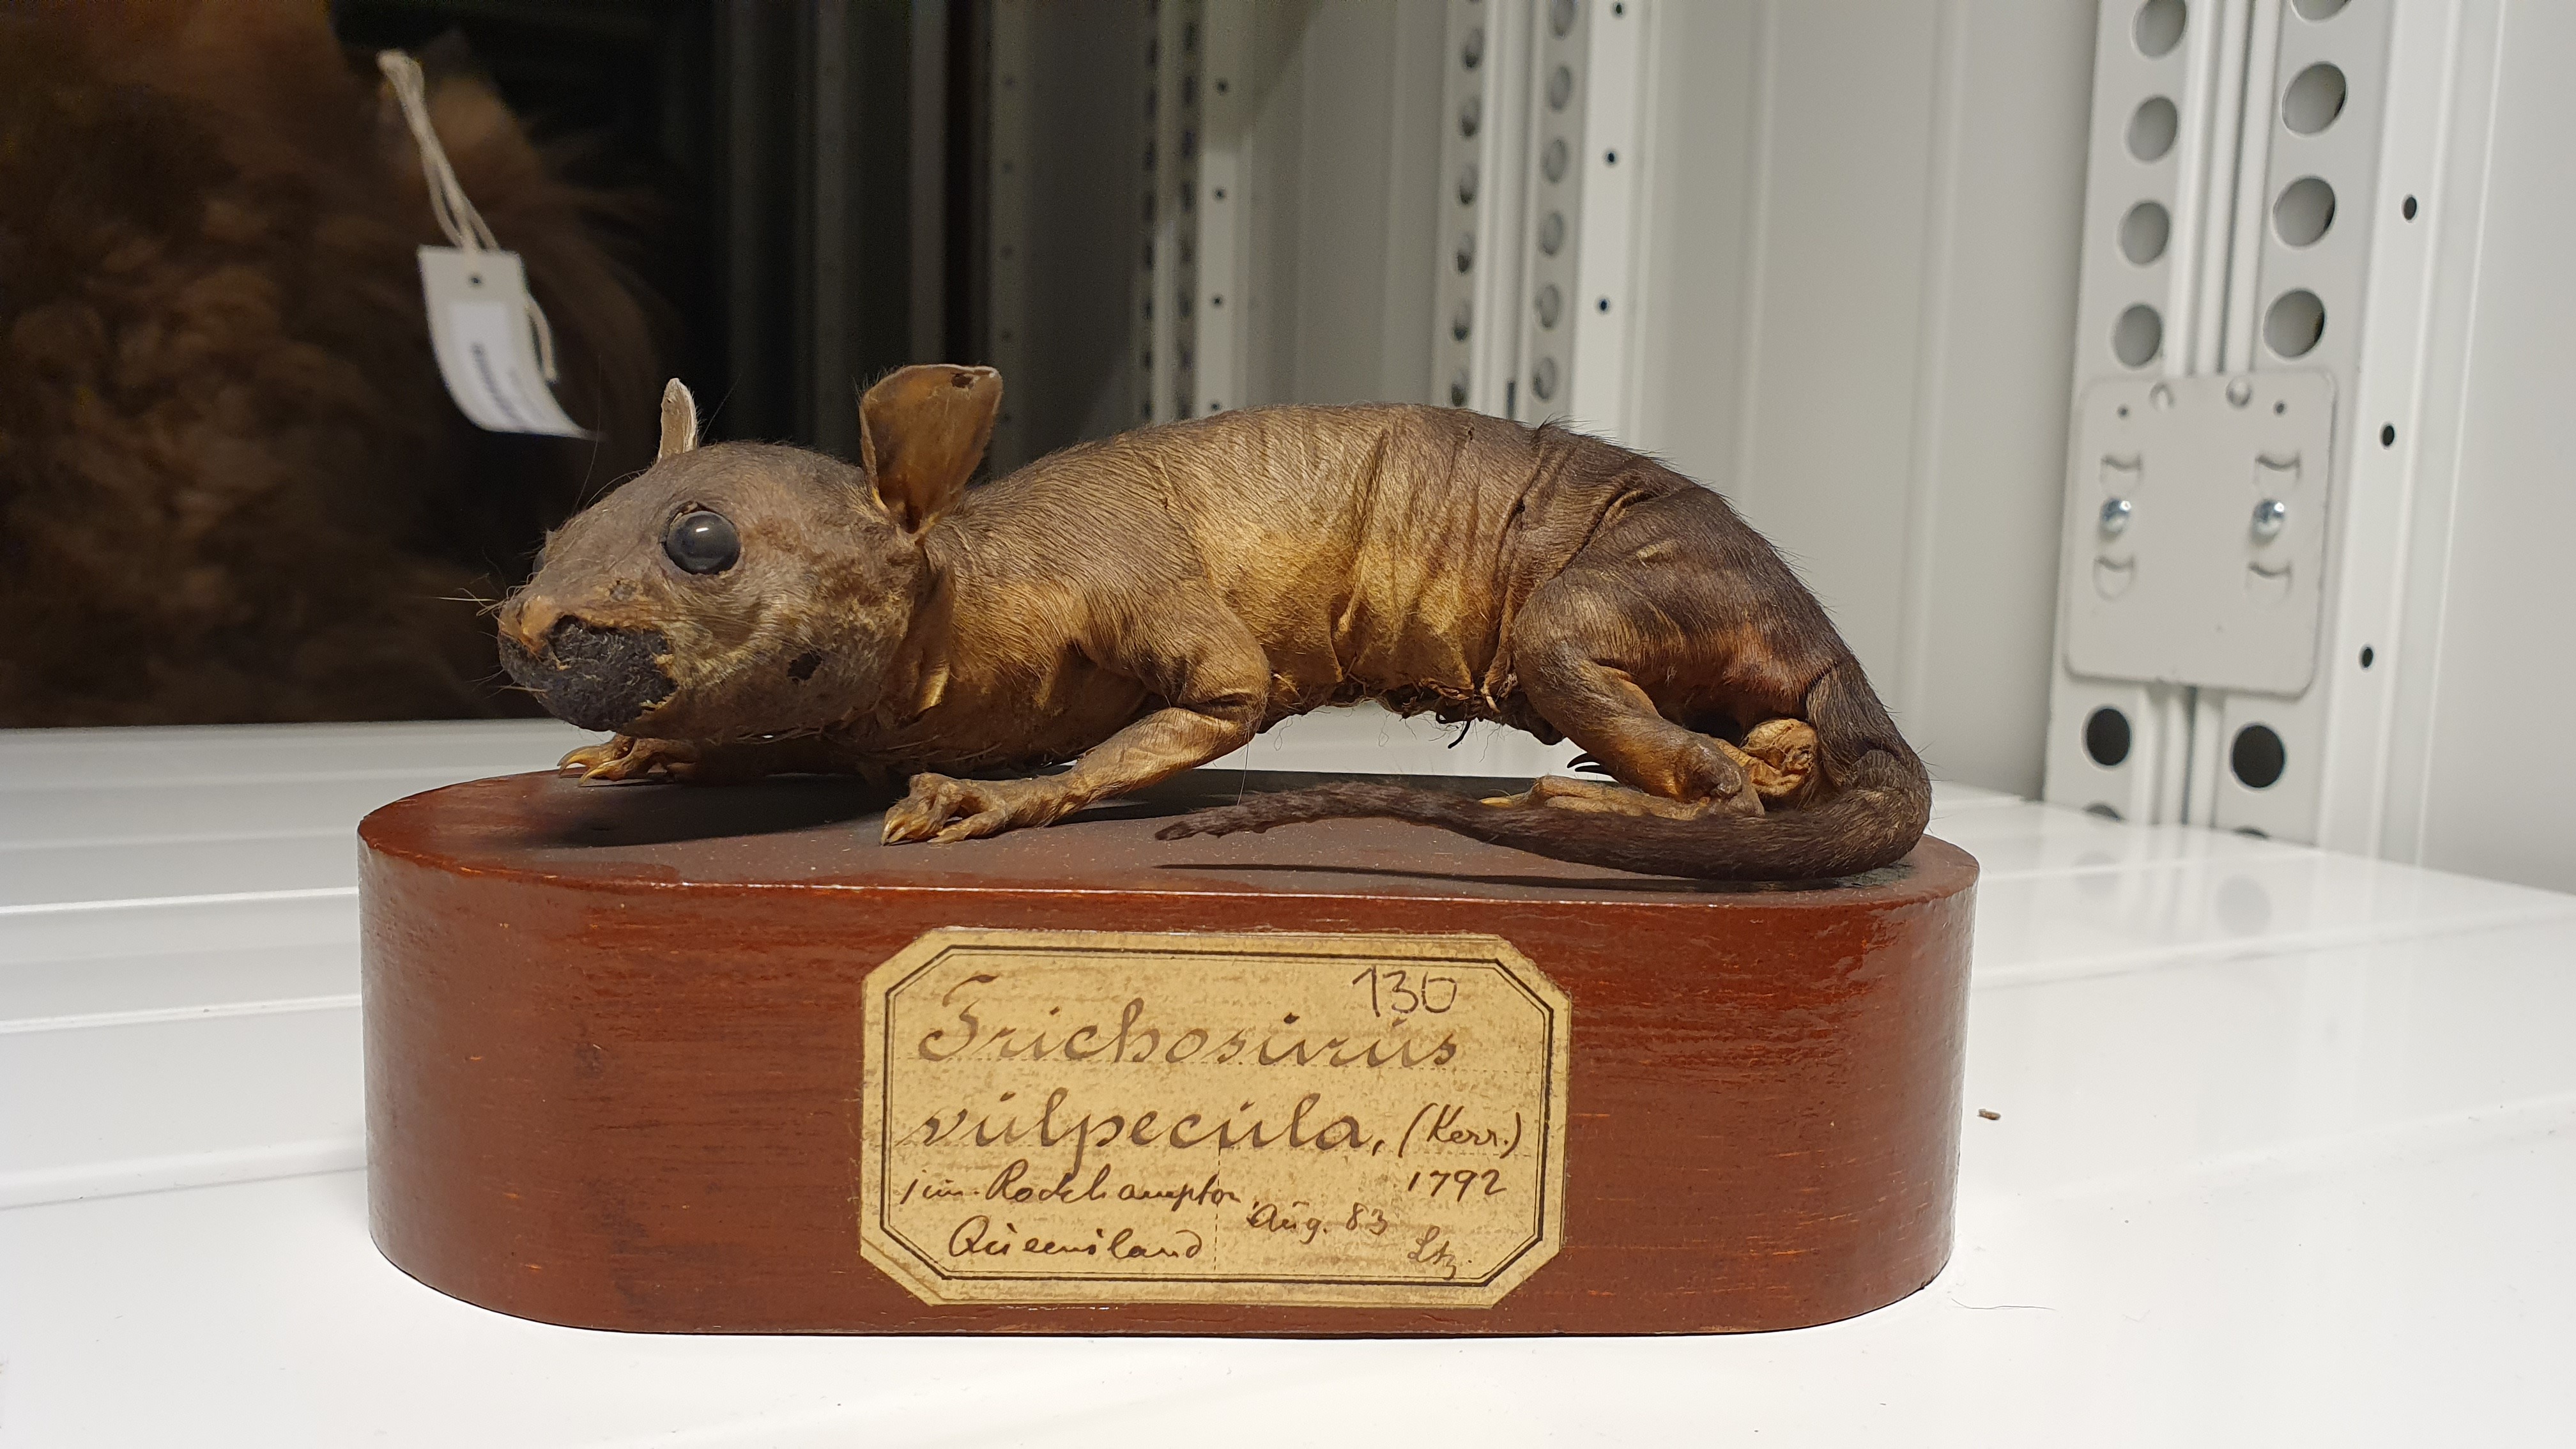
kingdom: Animalia
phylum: Chordata
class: Mammalia
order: Diprotodontia
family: Phalangeridae
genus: Trichosurus
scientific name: Trichosurus vulpecula
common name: Common brushtail
